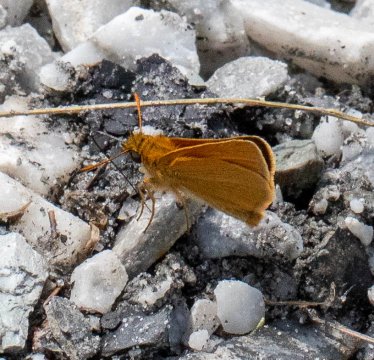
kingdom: Animalia
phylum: Arthropoda
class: Insecta
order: Lepidoptera
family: Hesperiidae
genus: Thymelicus
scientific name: Thymelicus lineola
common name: European Skipper
